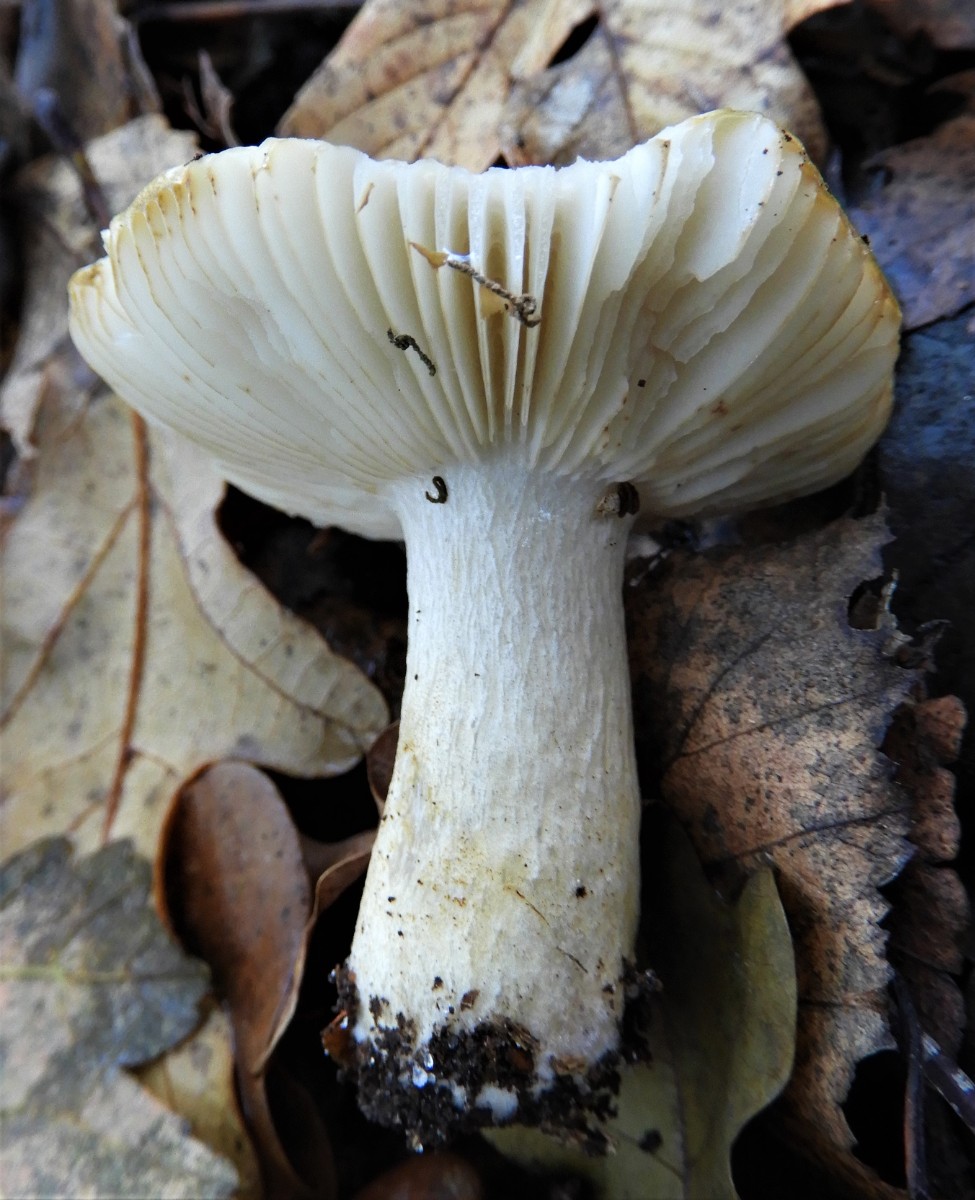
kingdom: Fungi
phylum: Basidiomycota
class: Agaricomycetes
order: Russulales
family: Russulaceae
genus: Russula
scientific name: Russula ochroleuca
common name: okkergul skørhat
